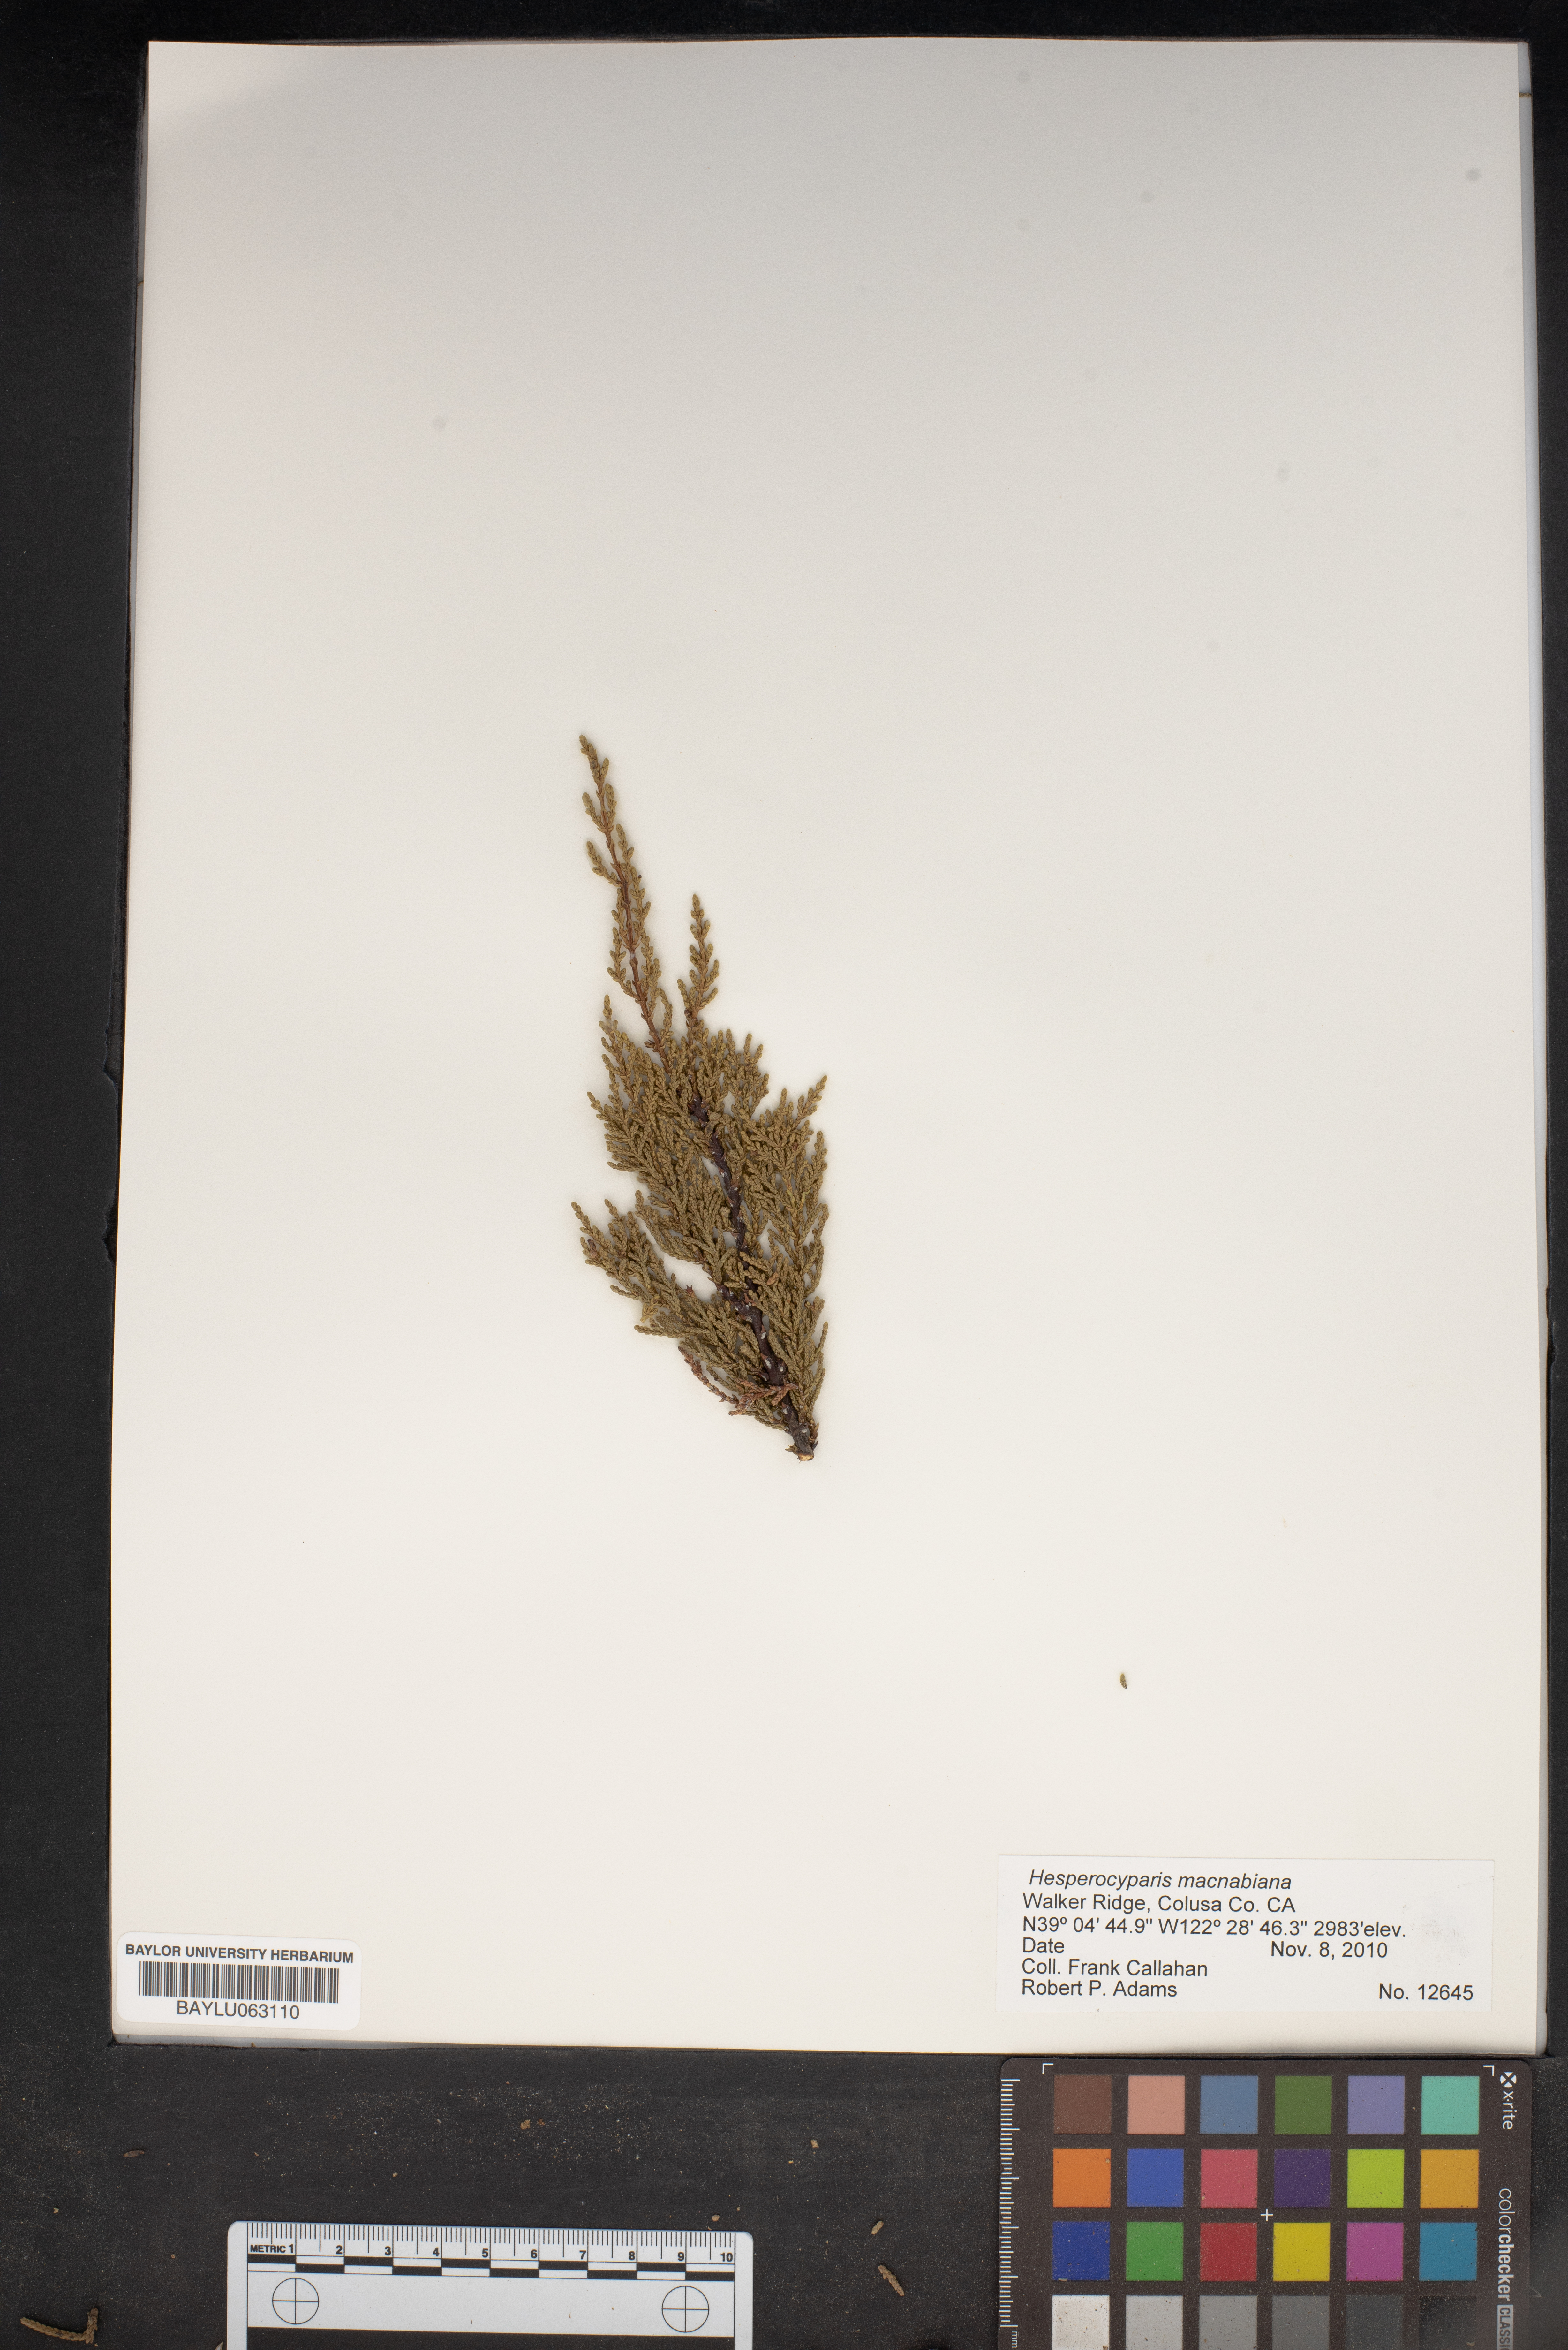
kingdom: Plantae
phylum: Tracheophyta
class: Pinopsida
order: Pinales
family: Cupressaceae
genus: Cupressus
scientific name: Cupressus macnabiana bis
